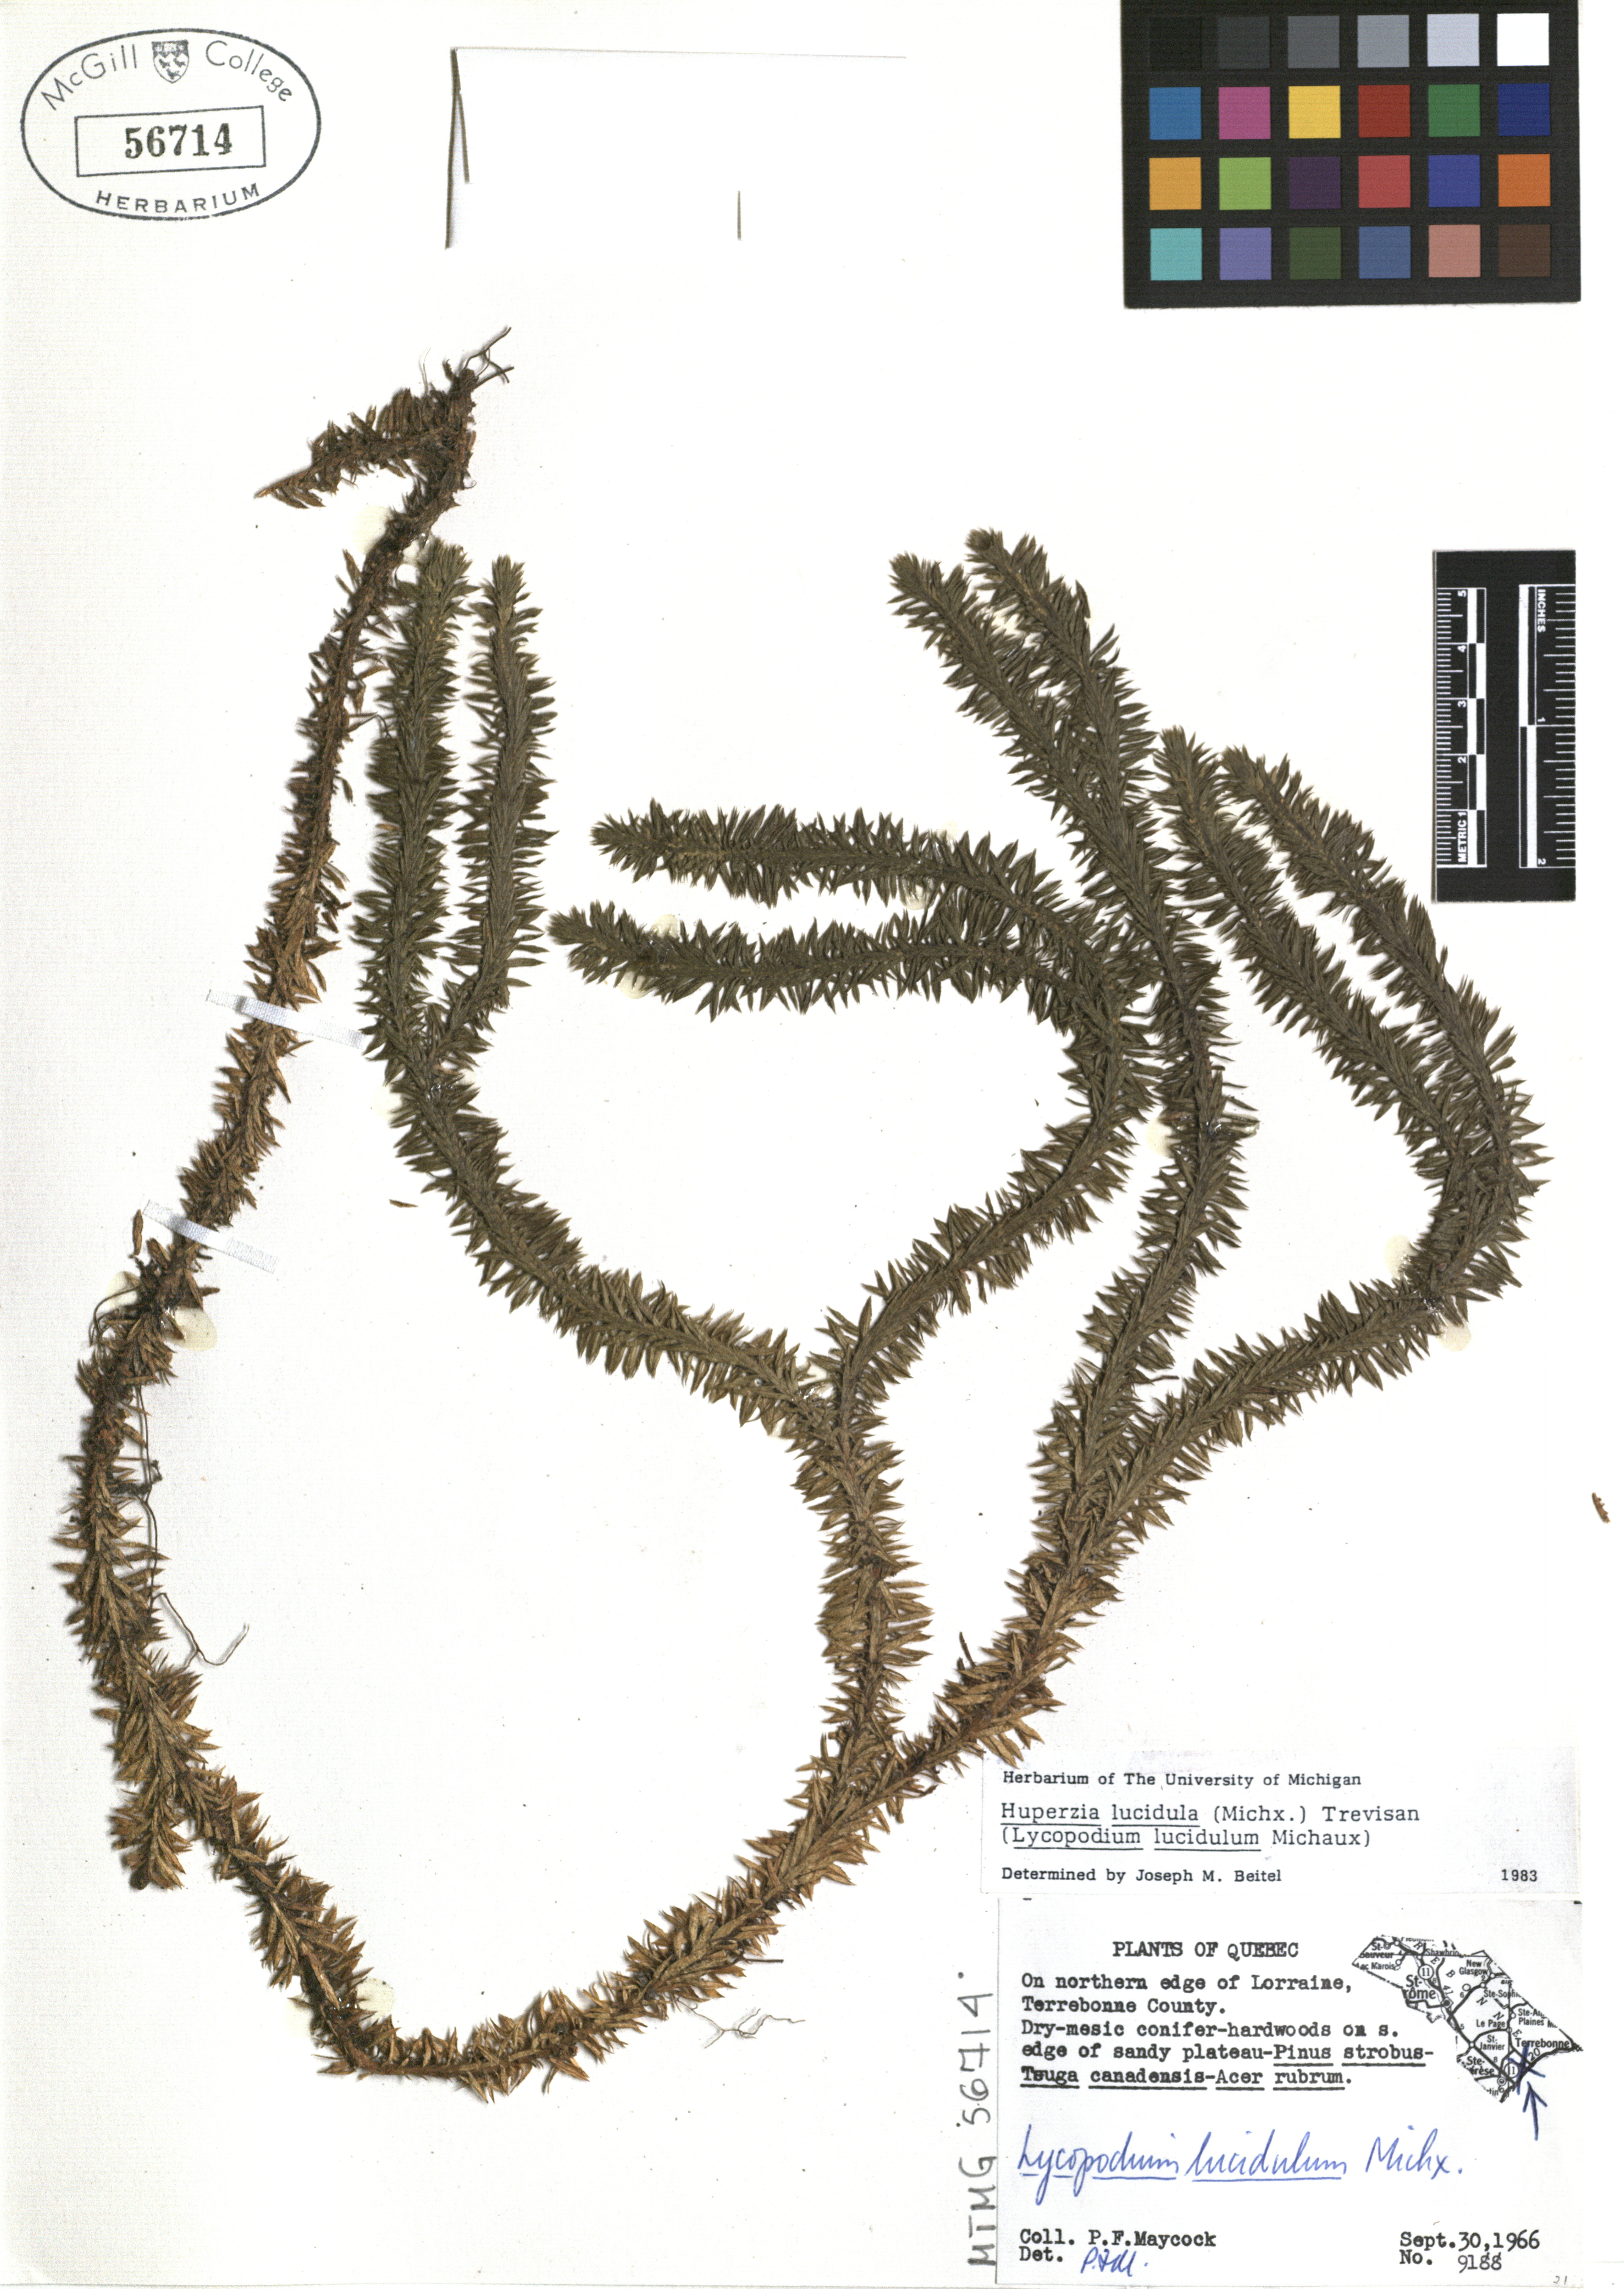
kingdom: Plantae
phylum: Tracheophyta
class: Lycopodiopsida
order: Lycopodiales
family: Lycopodiaceae
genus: Huperzia
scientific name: Huperzia lucidula
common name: Shining clubmoss
